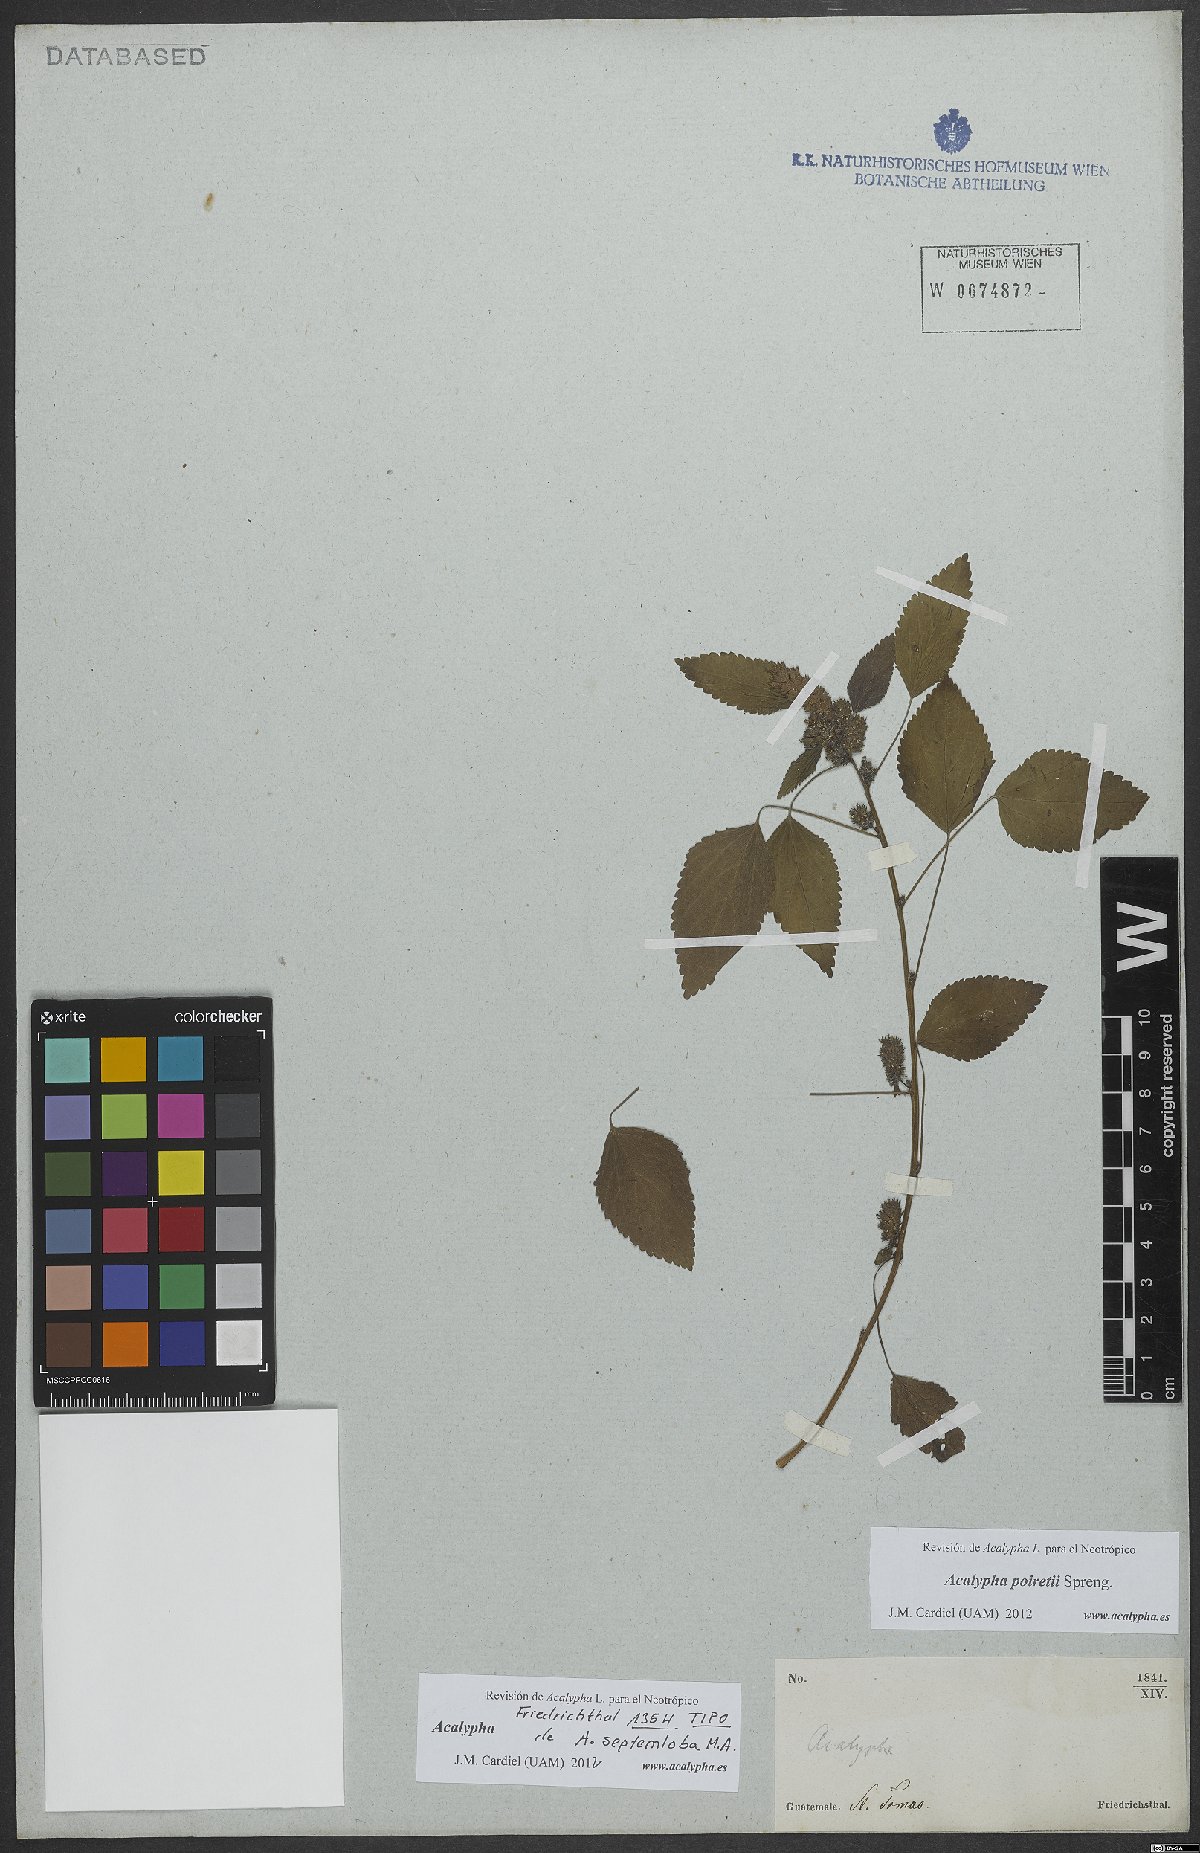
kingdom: Plantae
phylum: Tracheophyta
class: Magnoliopsida
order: Malpighiales
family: Euphorbiaceae
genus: Acalypha
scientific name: Acalypha poiretii
